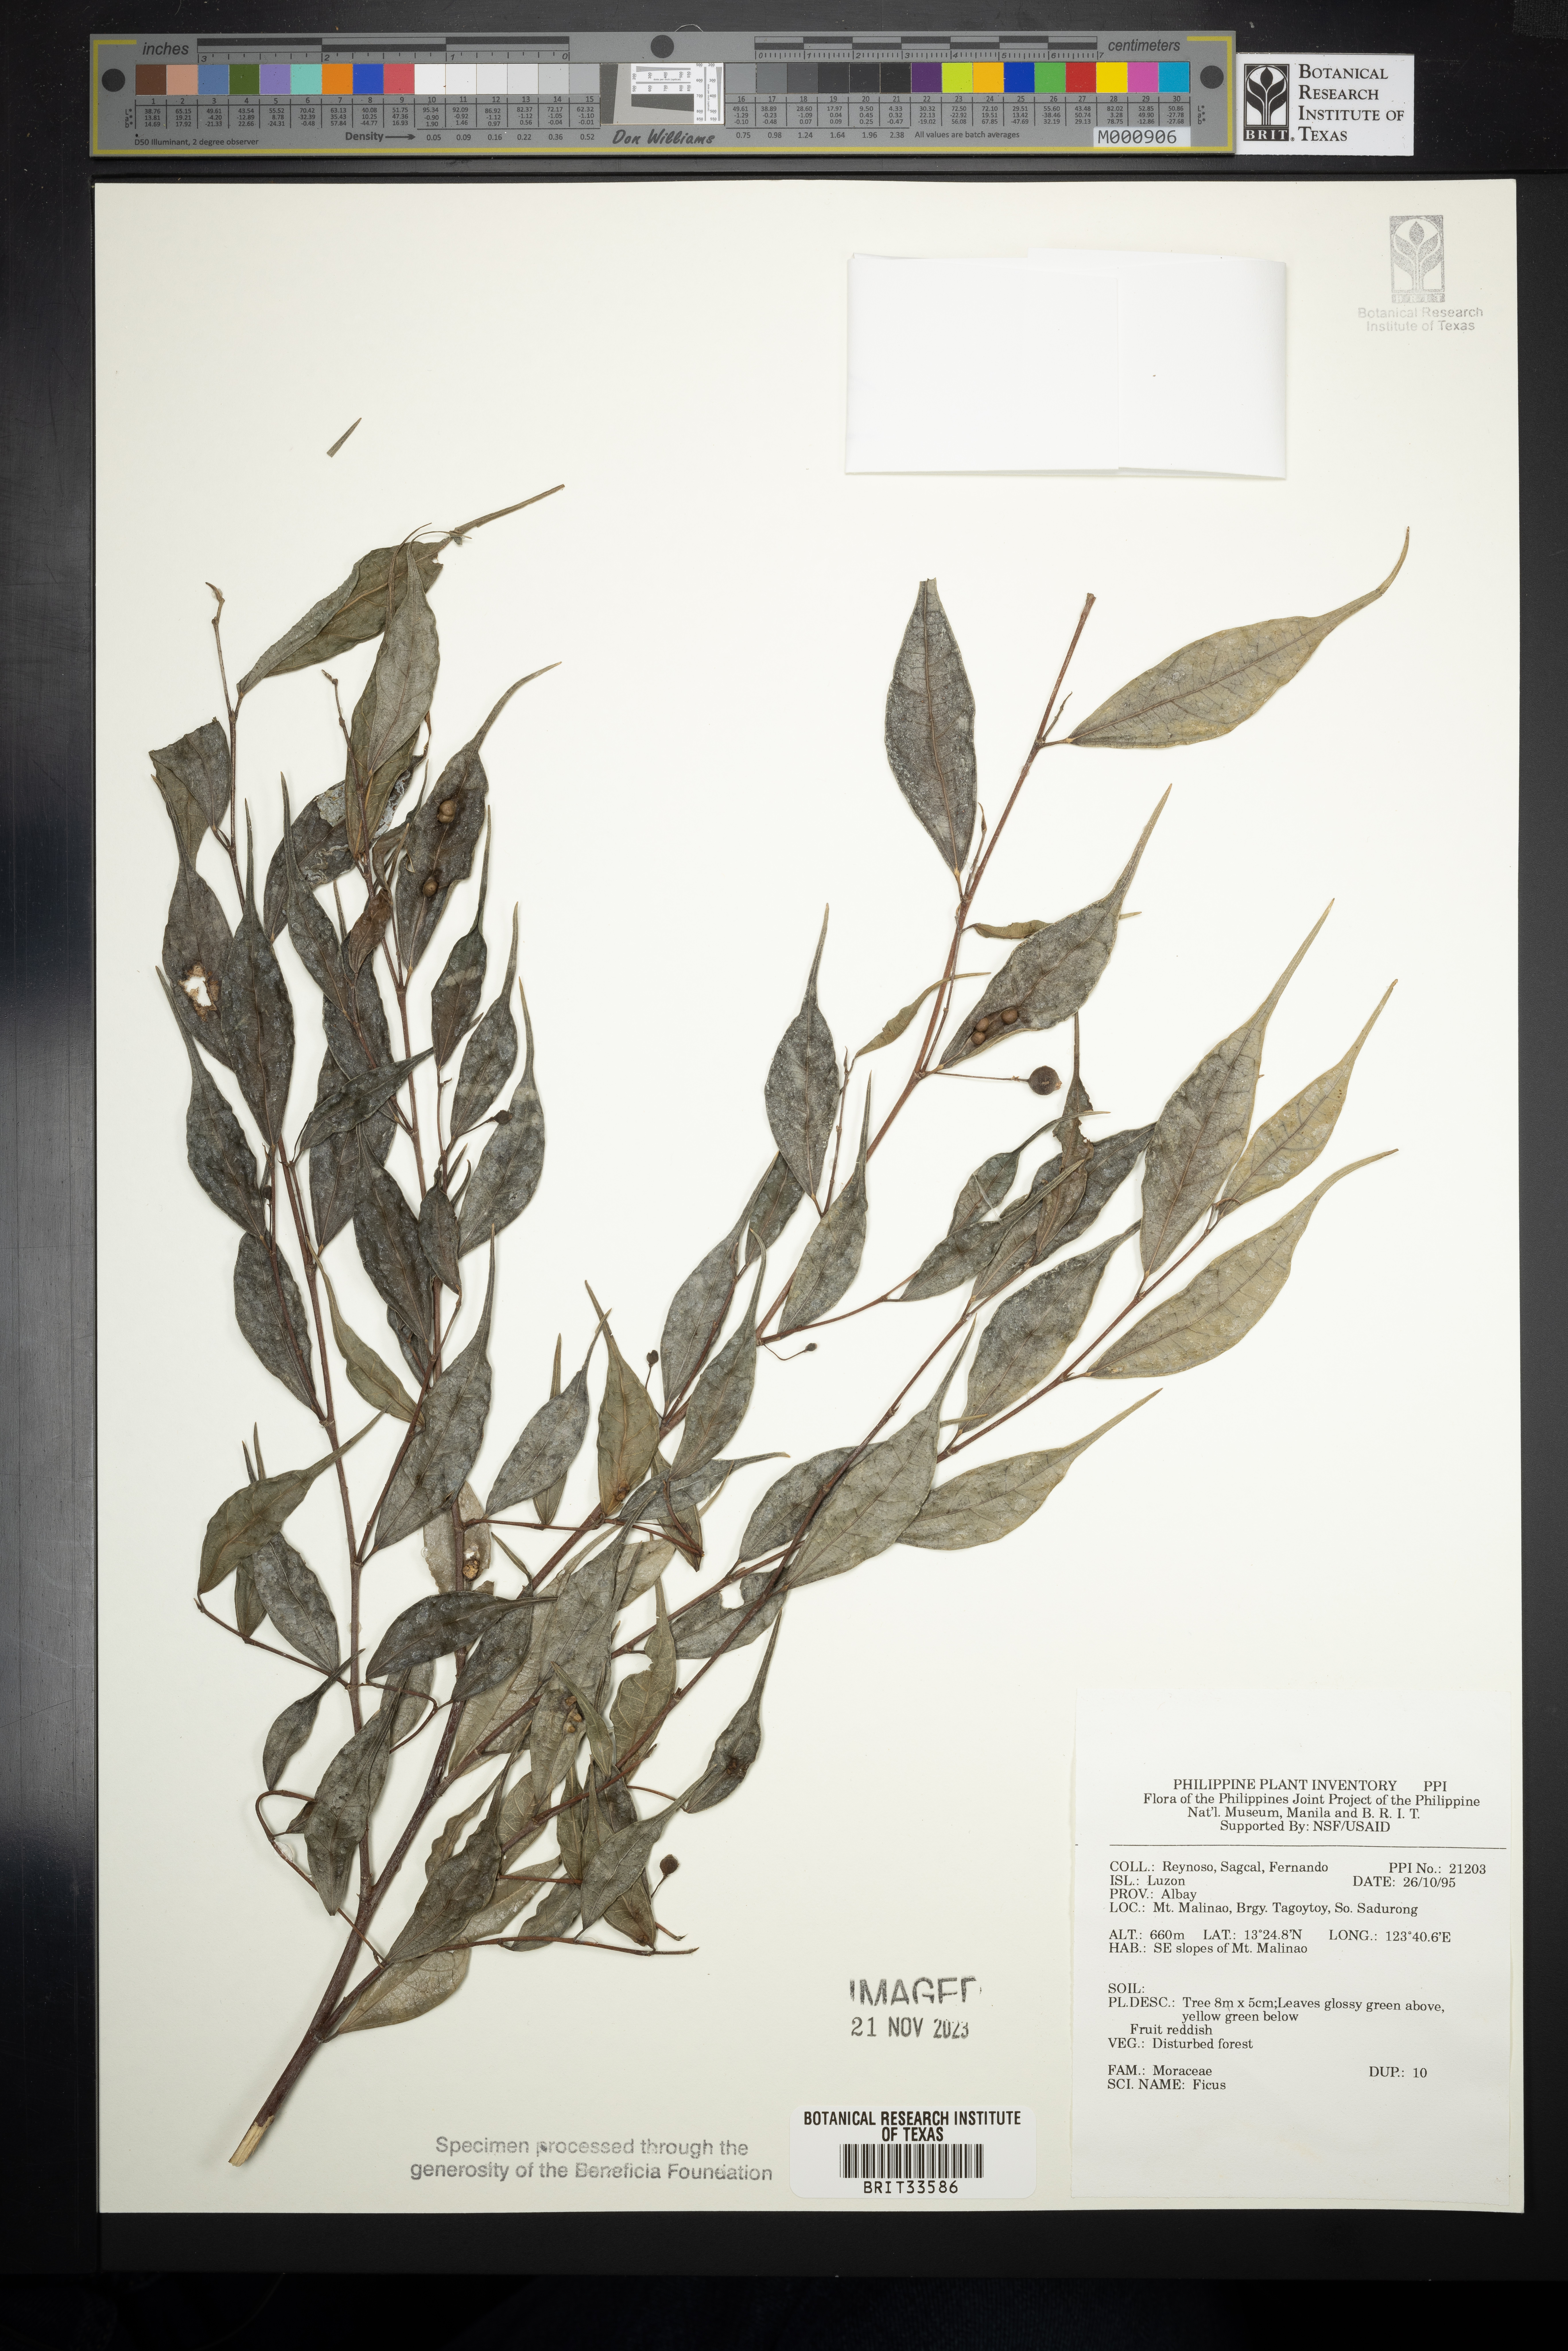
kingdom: Plantae
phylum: Tracheophyta
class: Magnoliopsida
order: Rosales
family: Moraceae
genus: Ficus
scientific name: Ficus
